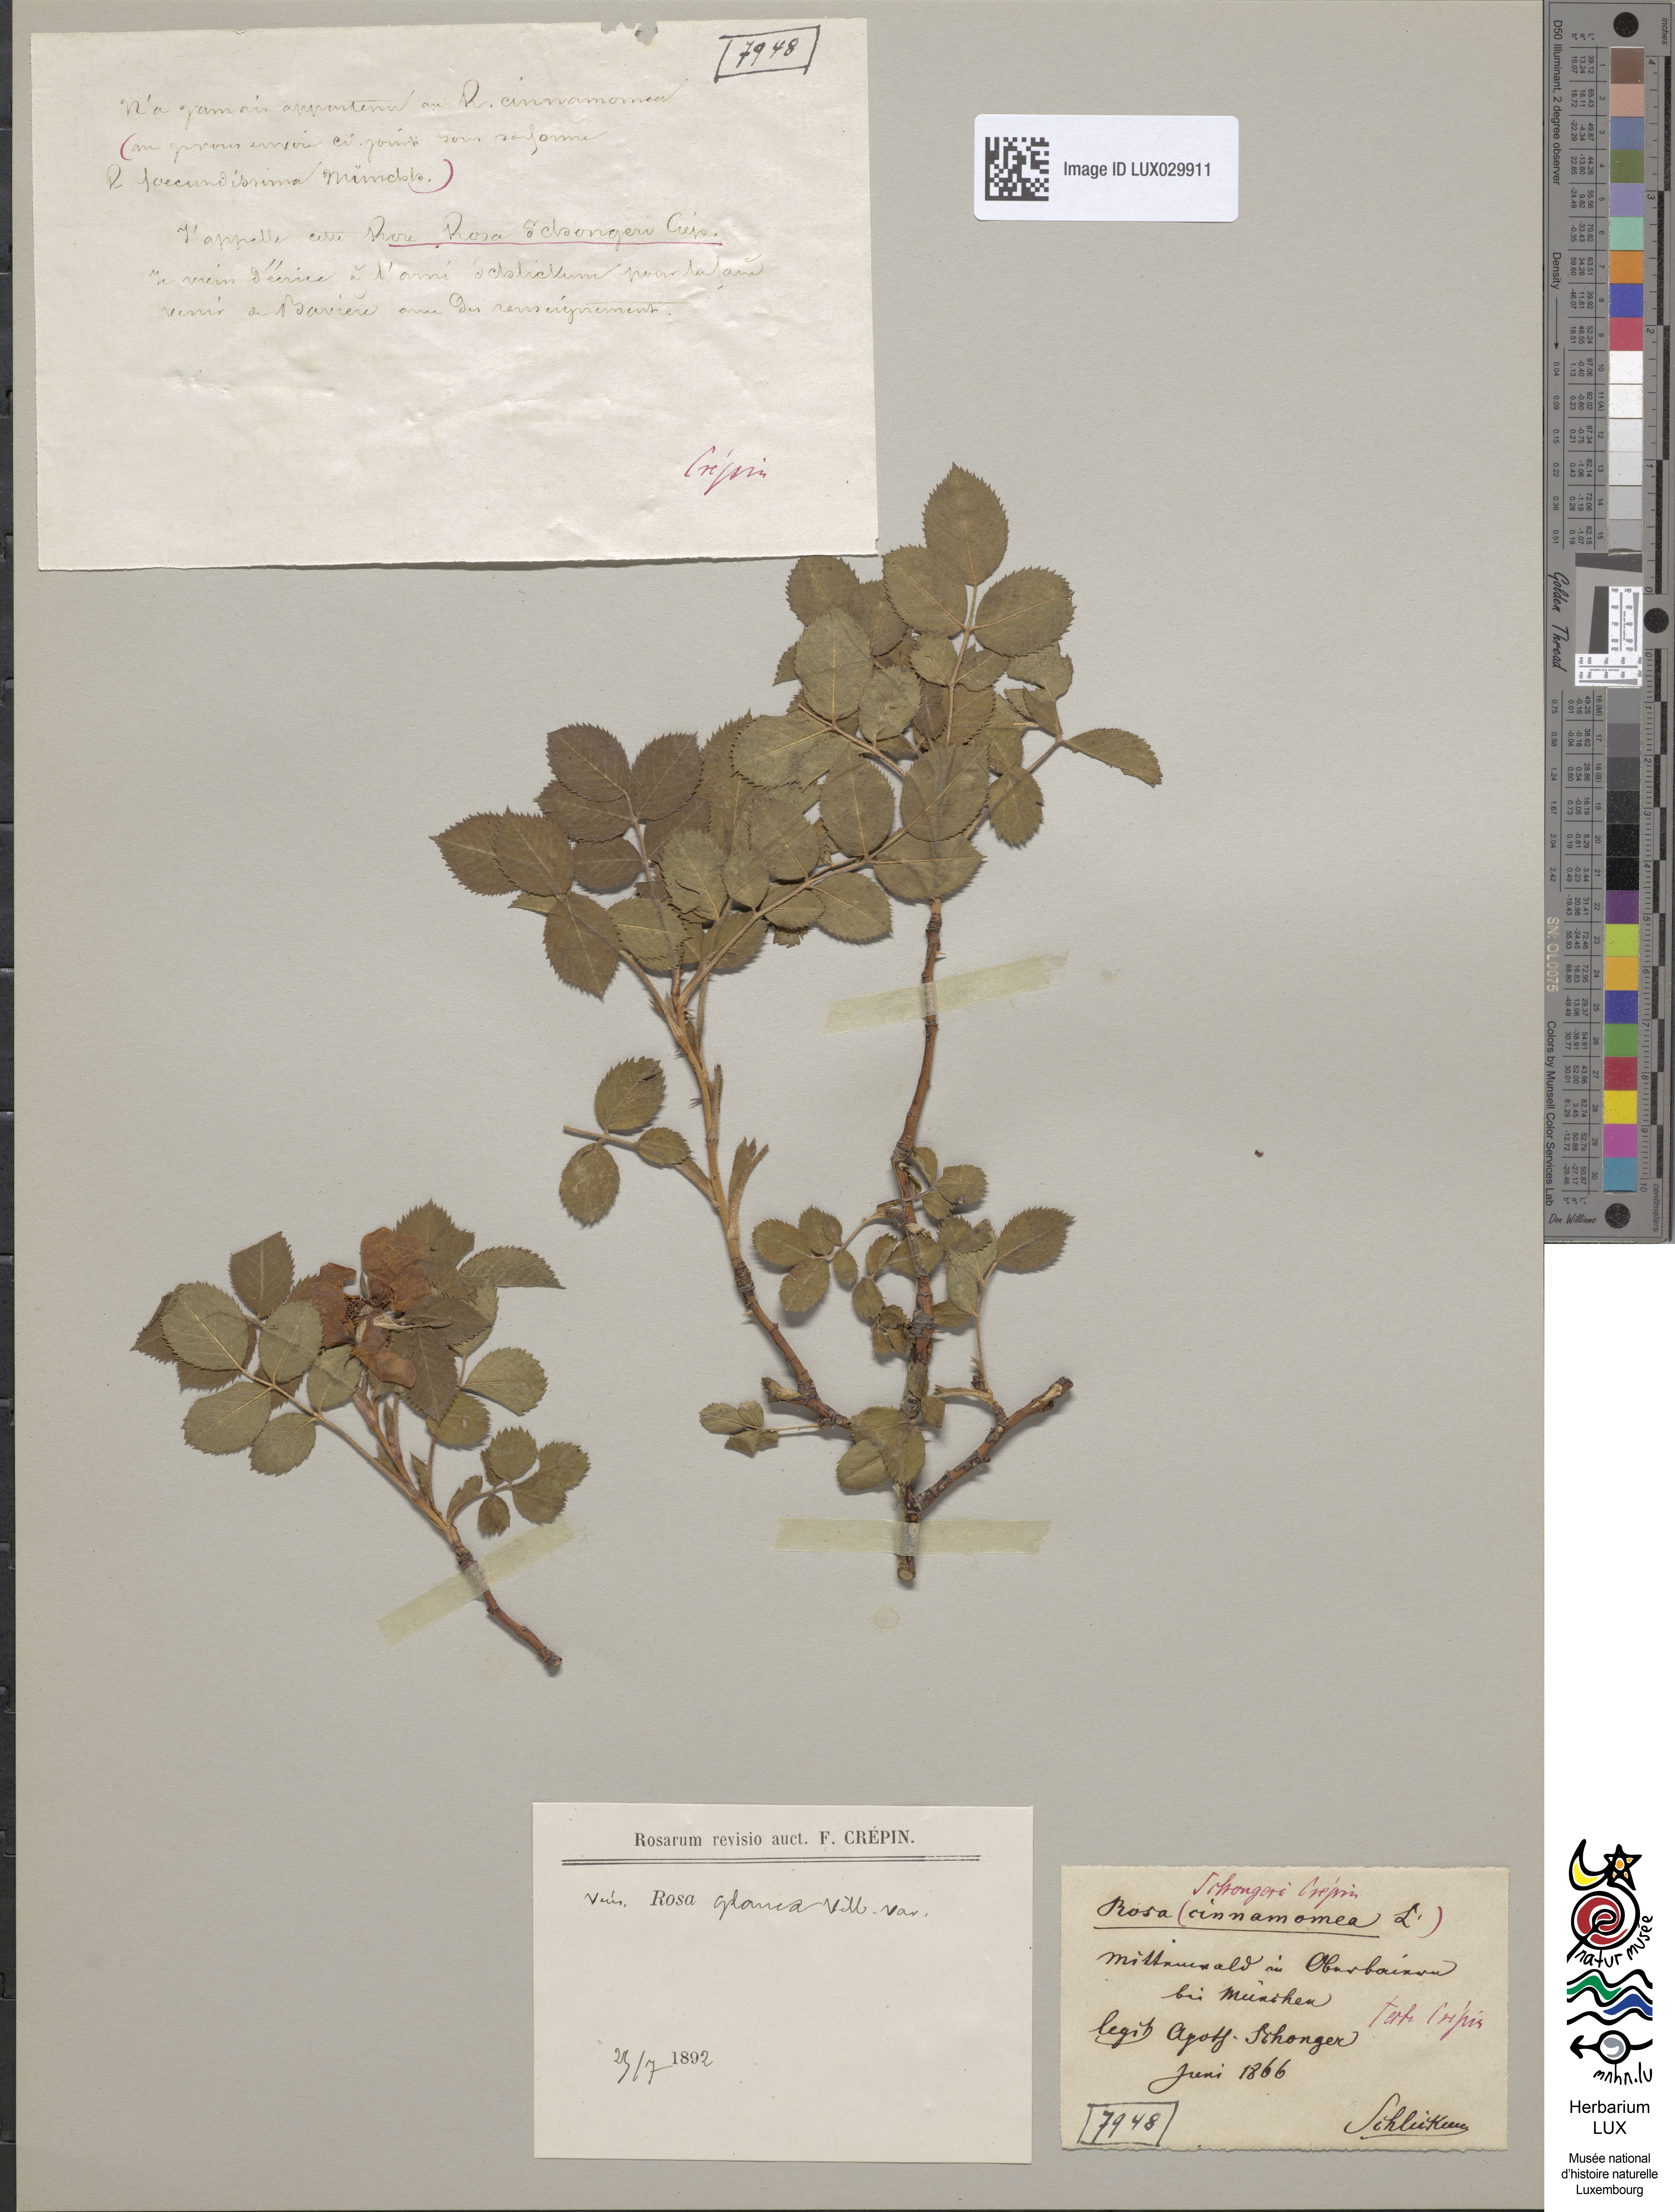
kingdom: Plantae
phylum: Tracheophyta
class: Magnoliopsida
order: Rosales
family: Rosaceae
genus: Rosa
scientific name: Rosa
